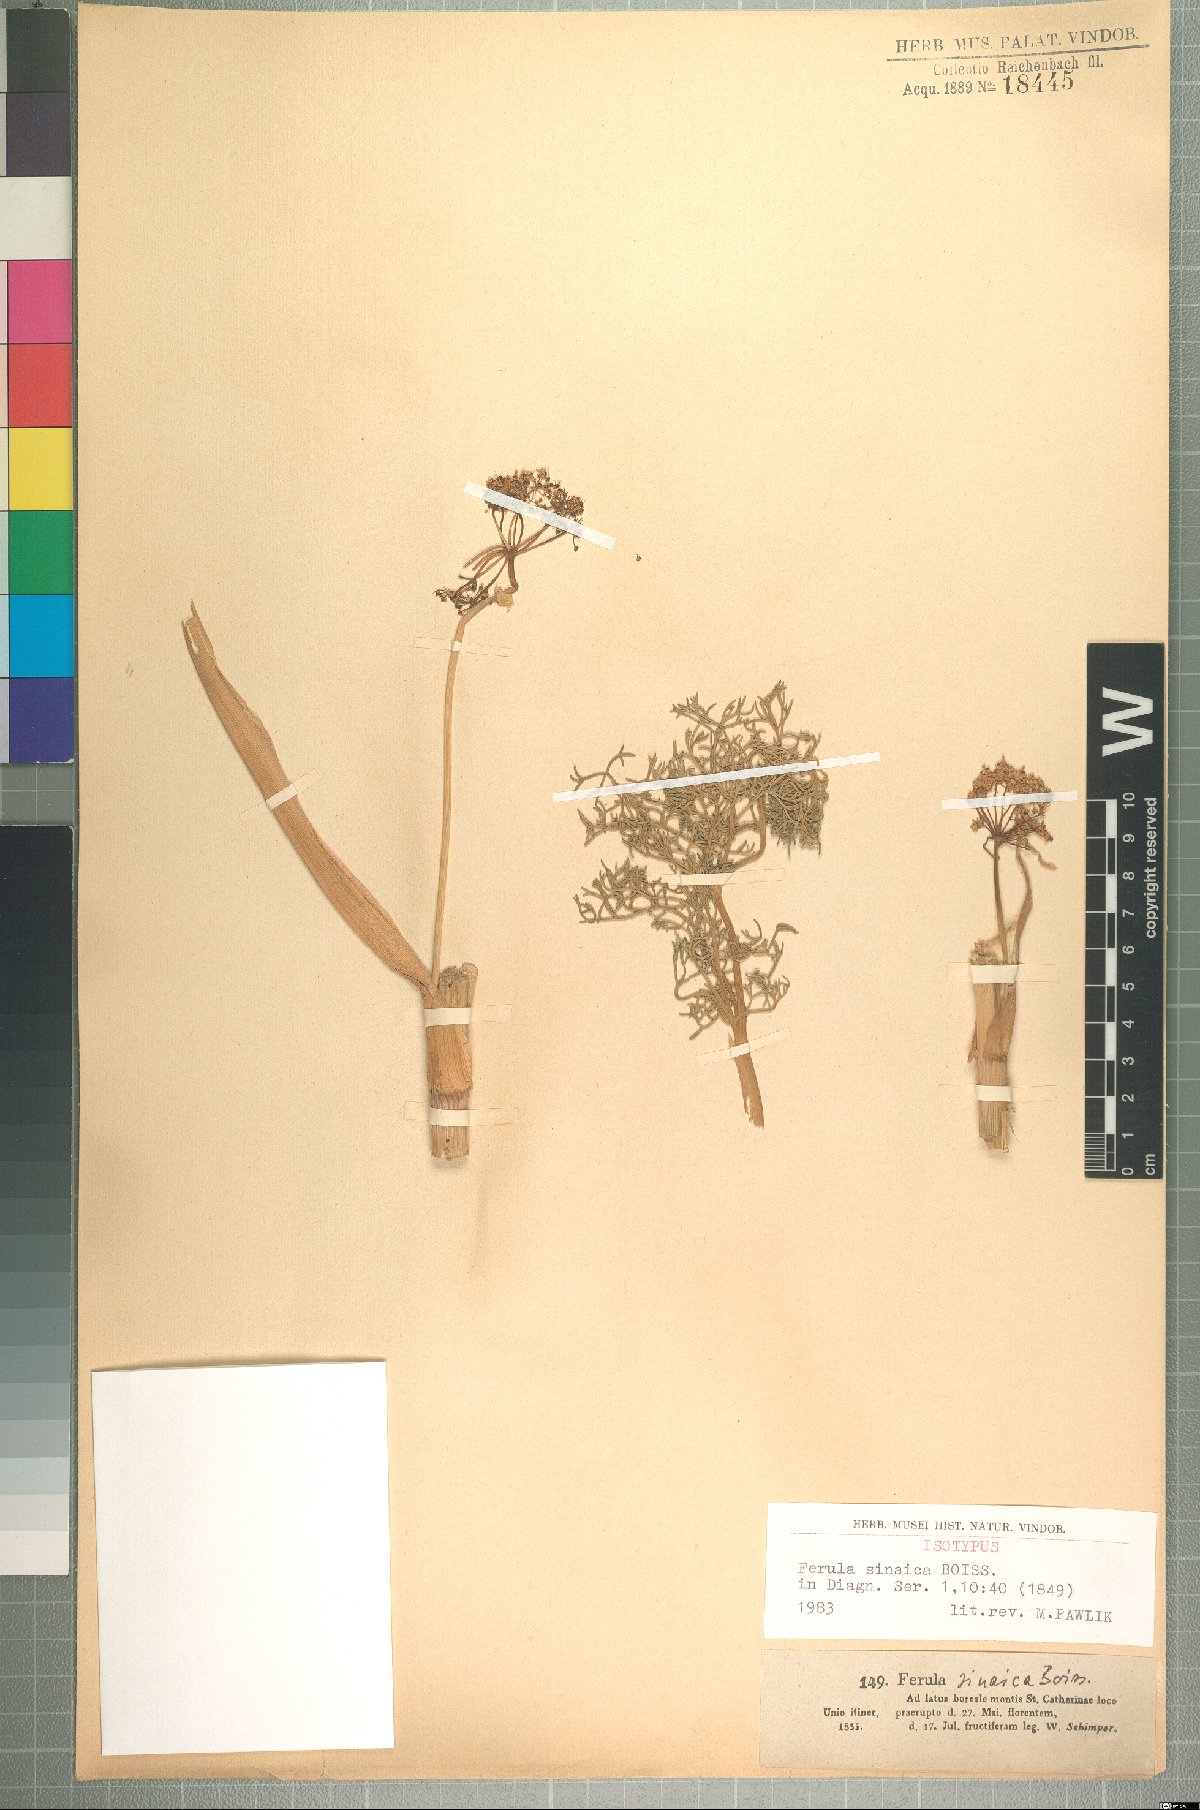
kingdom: Plantae
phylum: Tracheophyta
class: Magnoliopsida
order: Apiales
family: Apiaceae
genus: Ferula
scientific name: Ferula sinaica
